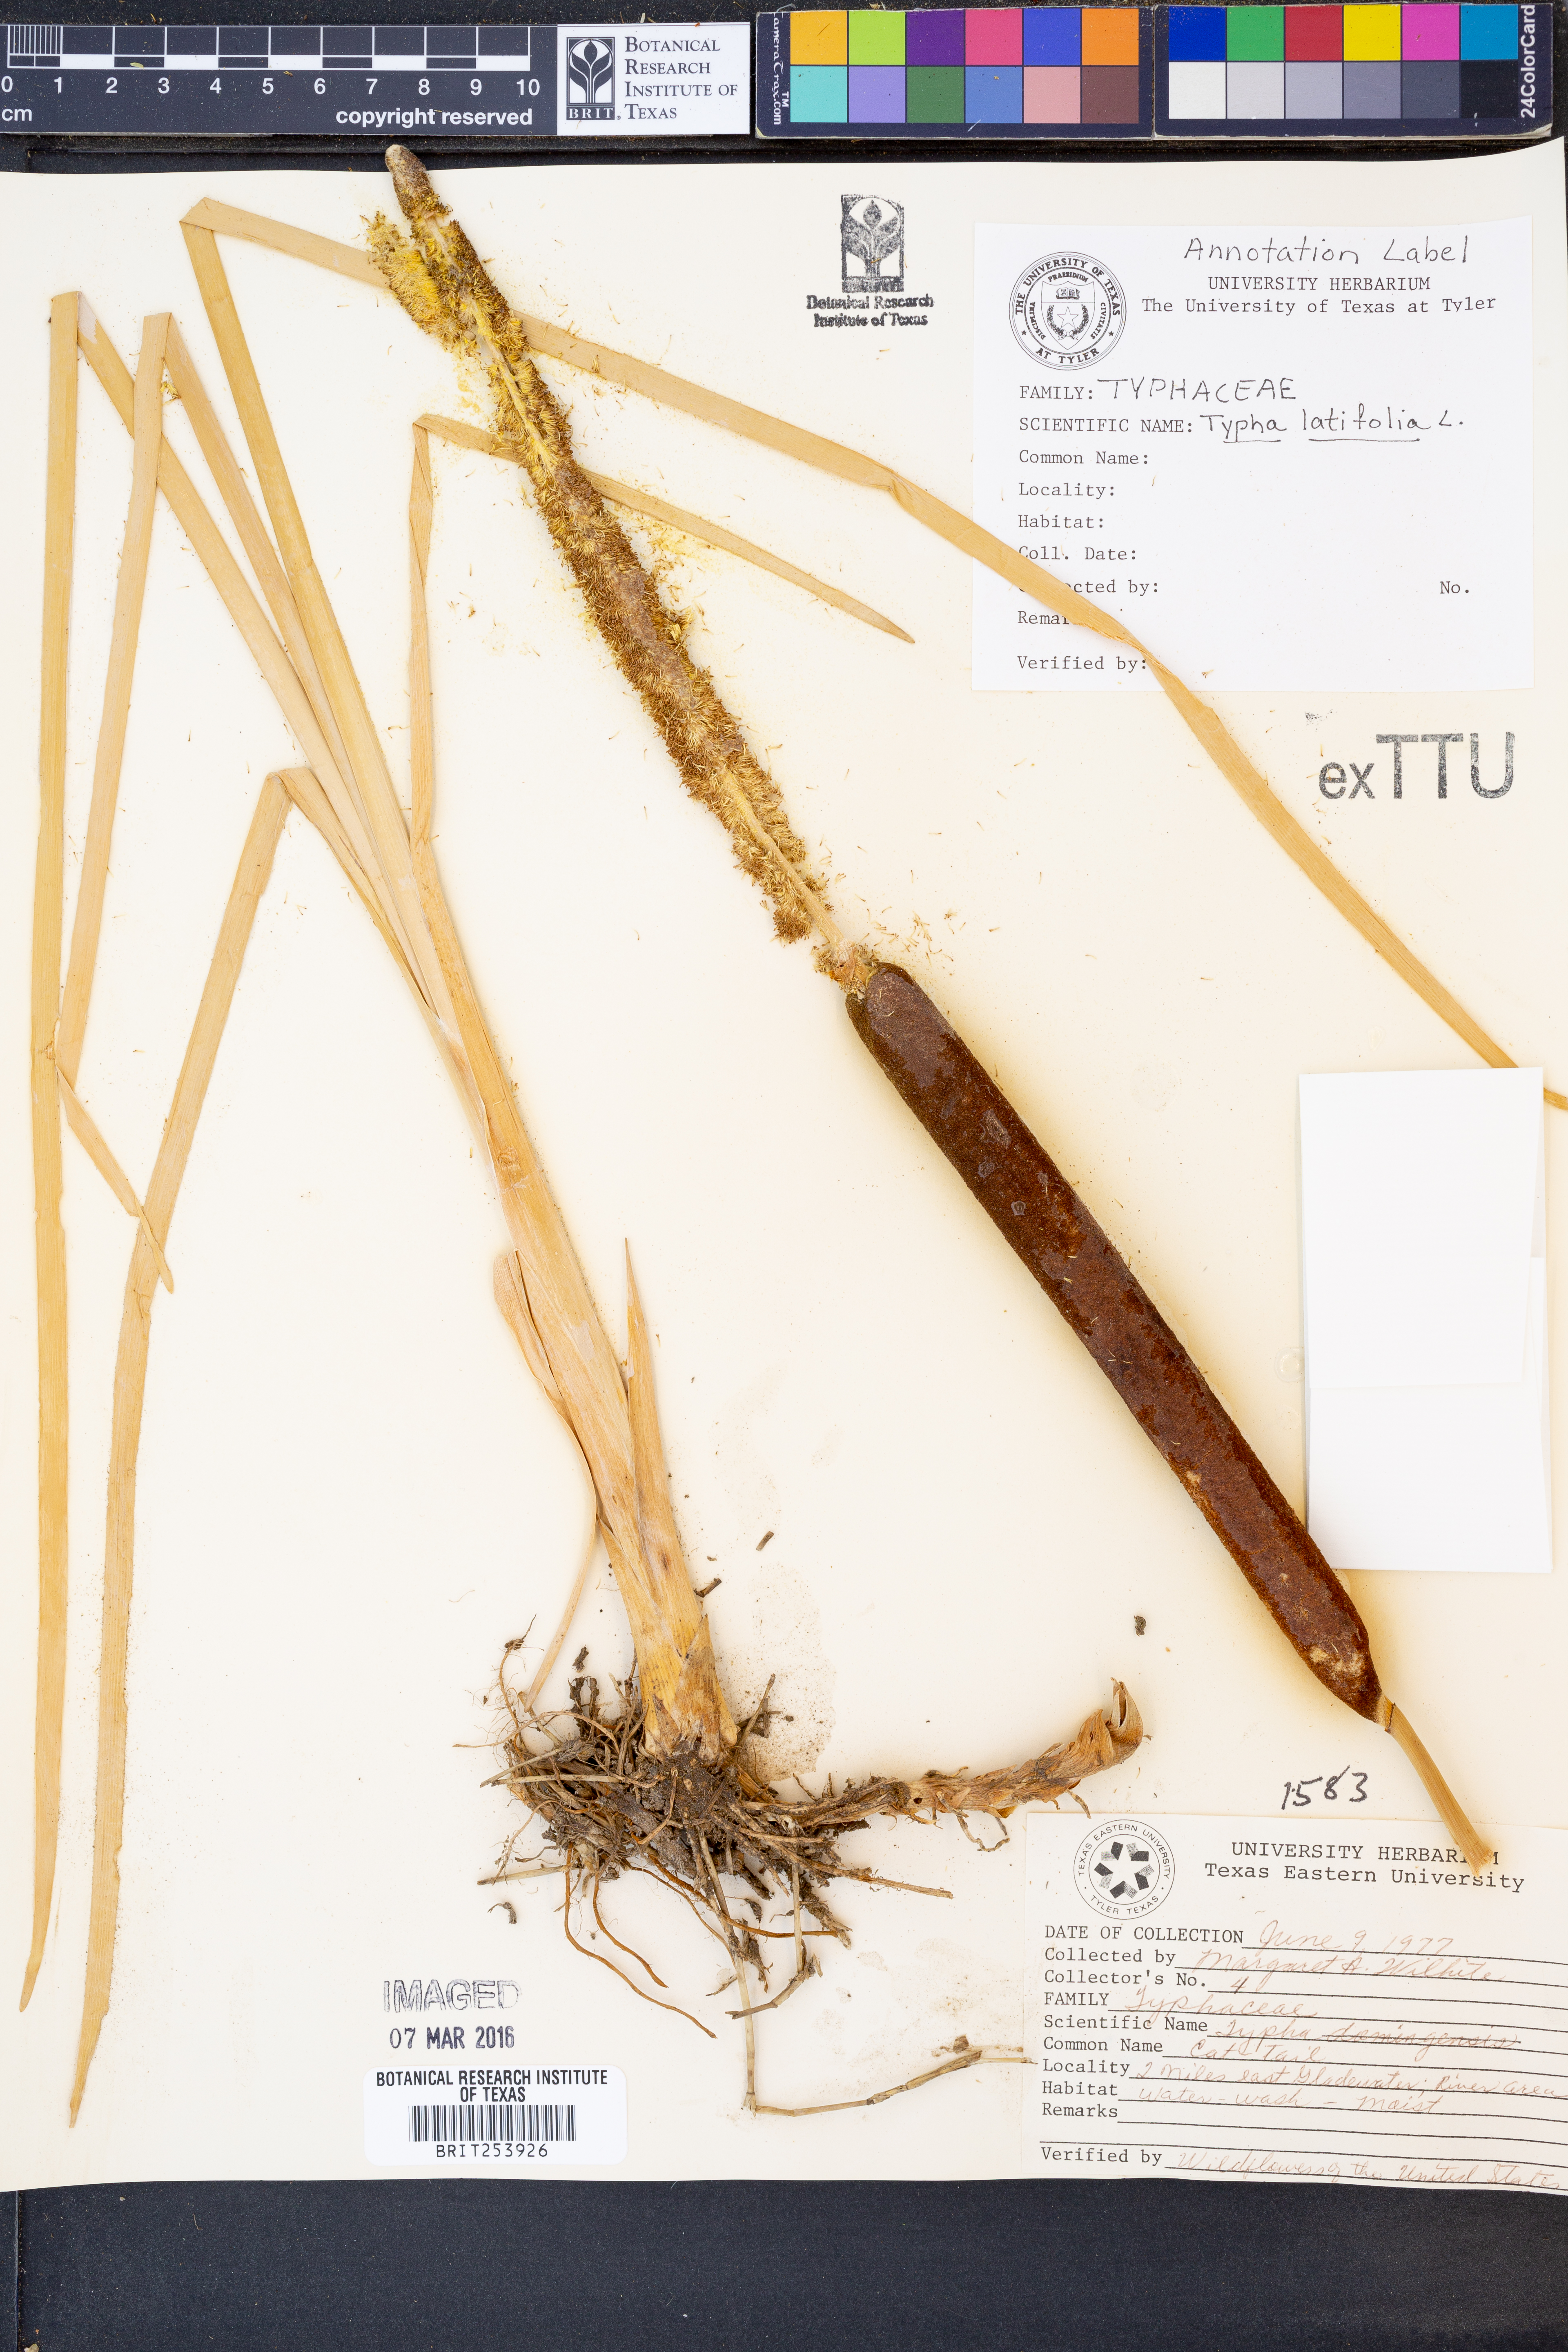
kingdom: Plantae
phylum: Tracheophyta
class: Liliopsida
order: Poales
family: Typhaceae
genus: Typha
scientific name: Typha latifolia
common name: Broadleaf cattail
